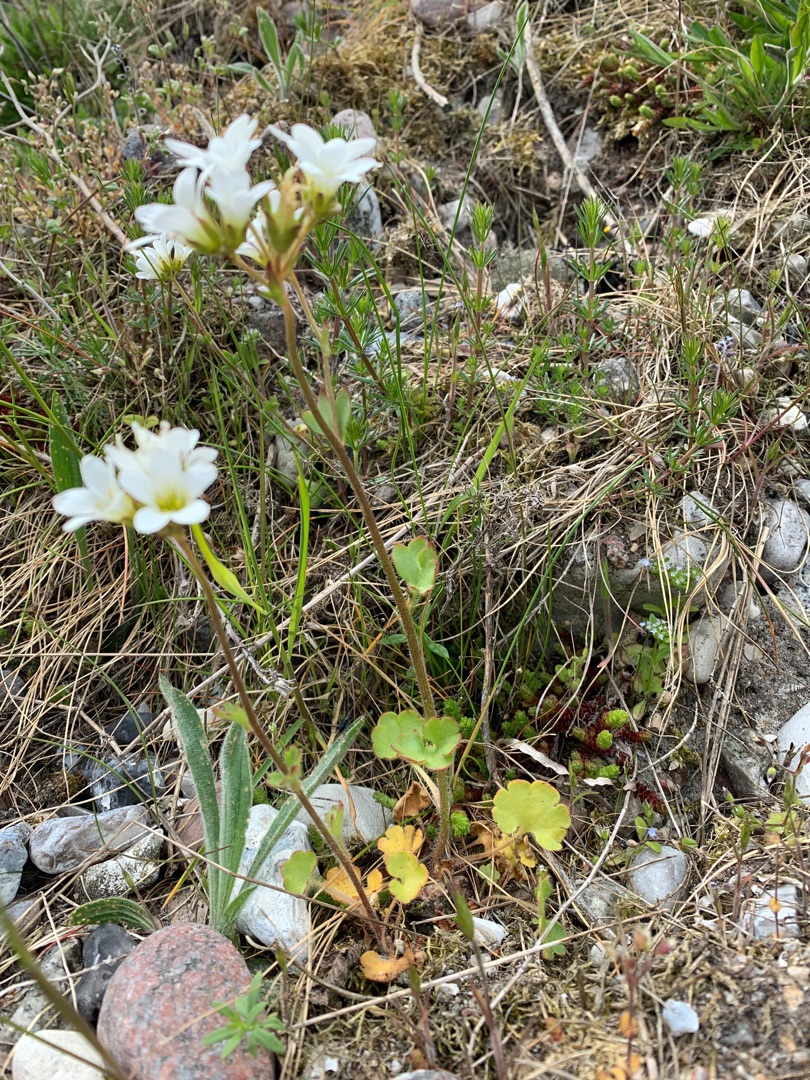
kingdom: Plantae
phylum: Tracheophyta
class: Magnoliopsida
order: Saxifragales
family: Saxifragaceae
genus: Saxifraga
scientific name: Saxifraga granulata
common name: Kornet stenbræk
